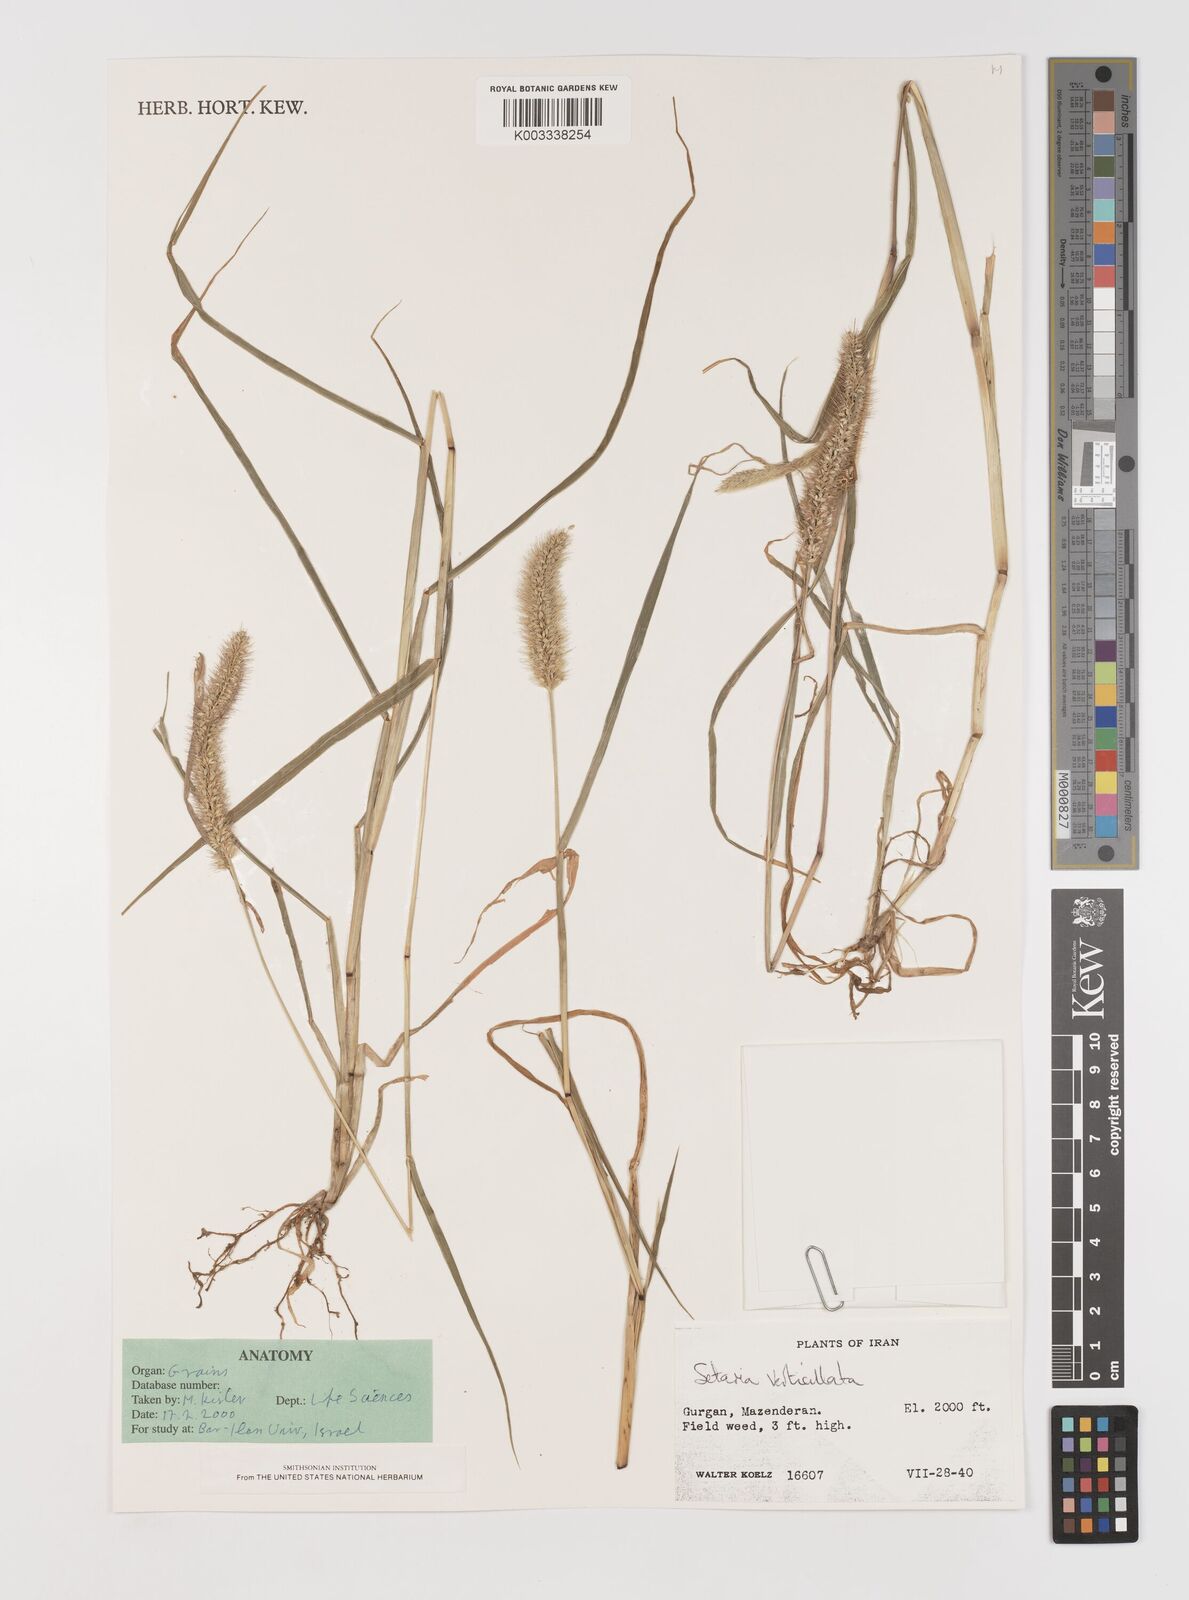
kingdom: Plantae
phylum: Tracheophyta
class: Liliopsida
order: Poales
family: Poaceae
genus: Setaria
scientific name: Setaria verticillata
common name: Hooked bristlegrass
